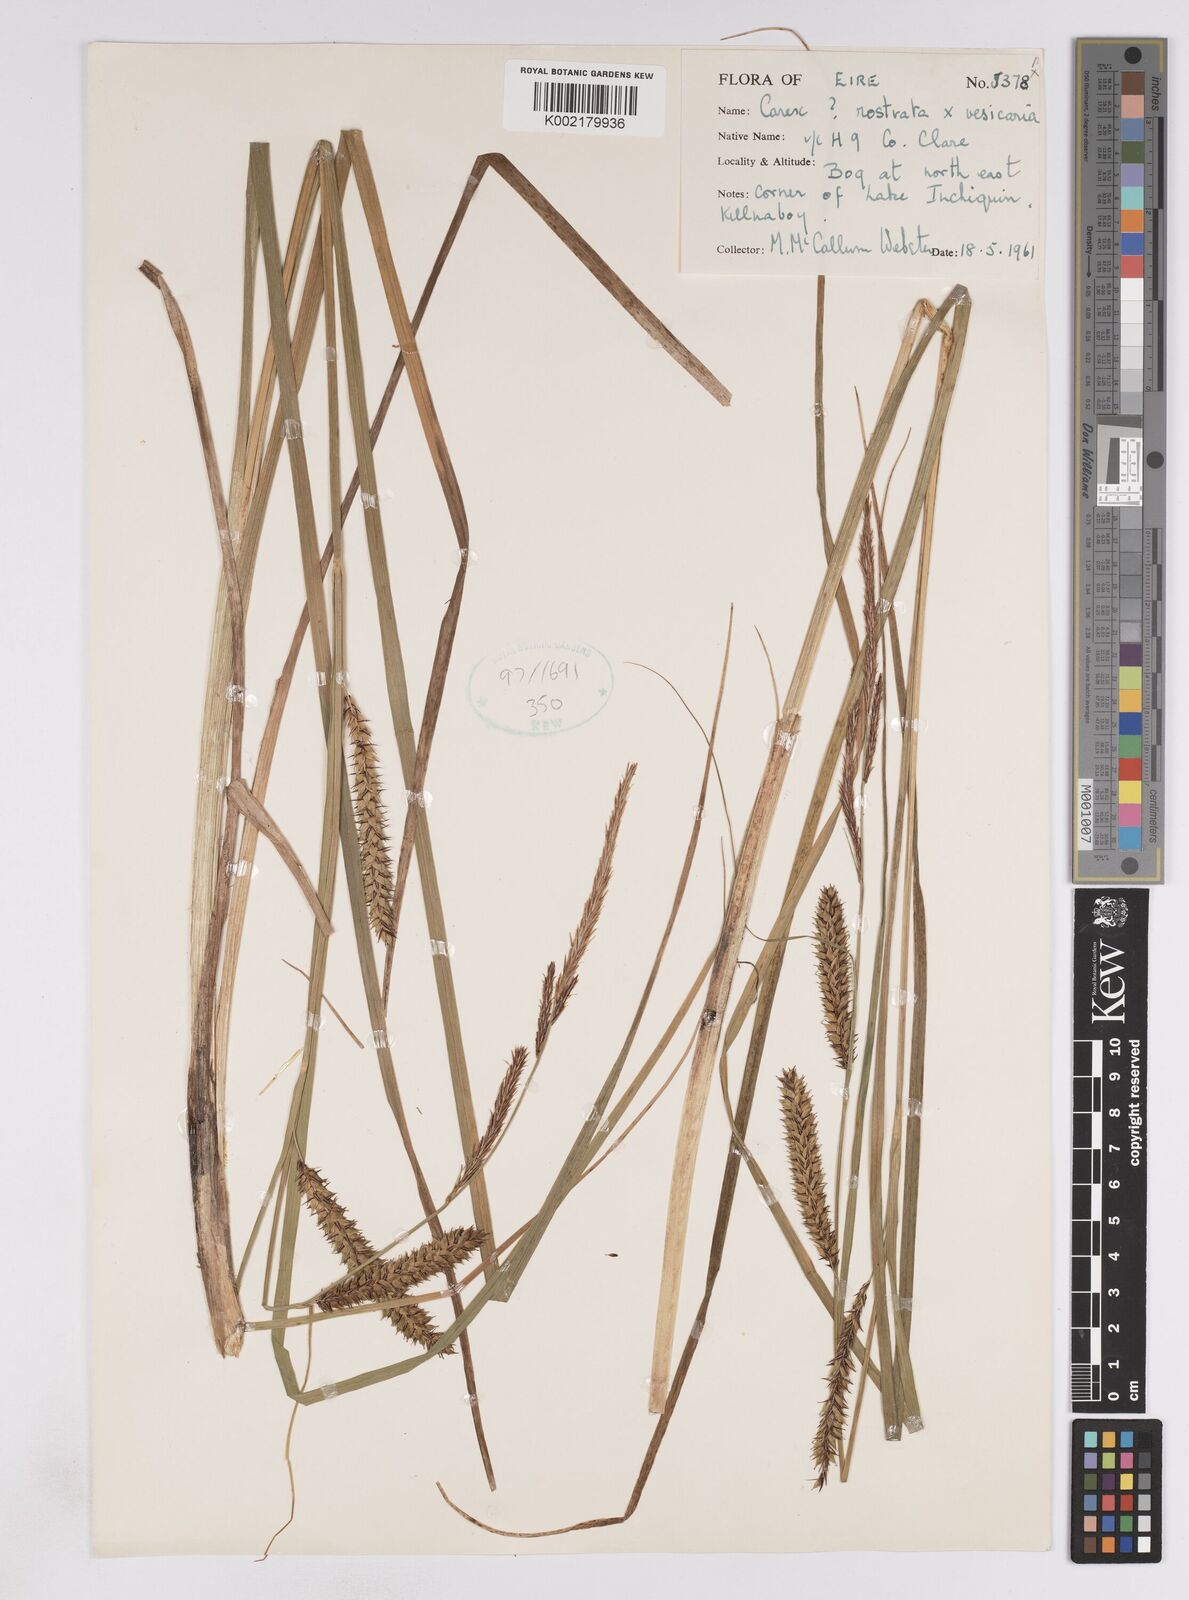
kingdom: Plantae
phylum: Tracheophyta
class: Liliopsida
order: Poales
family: Cyperaceae
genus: Carex
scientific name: Carex rostrata
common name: Bottle sedge
